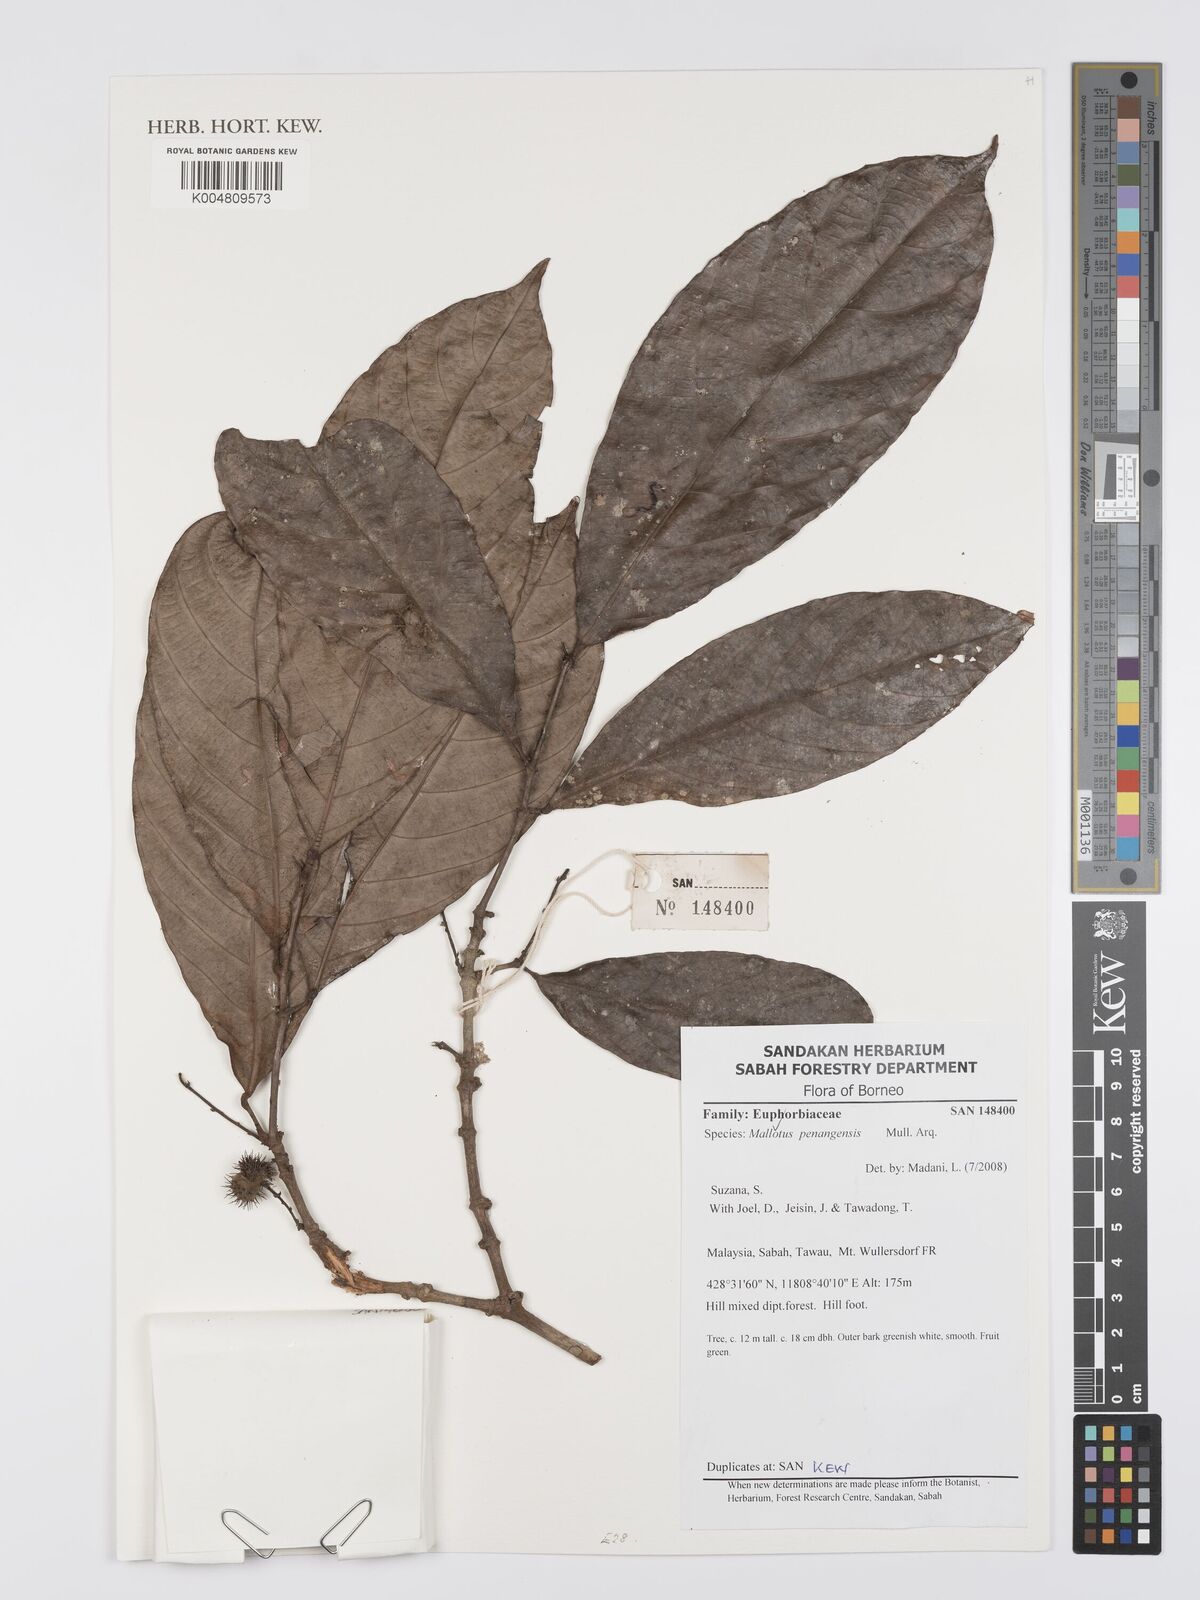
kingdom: Plantae
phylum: Tracheophyta
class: Magnoliopsida
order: Malpighiales
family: Euphorbiaceae
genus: Hancea
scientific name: Hancea penangensis
